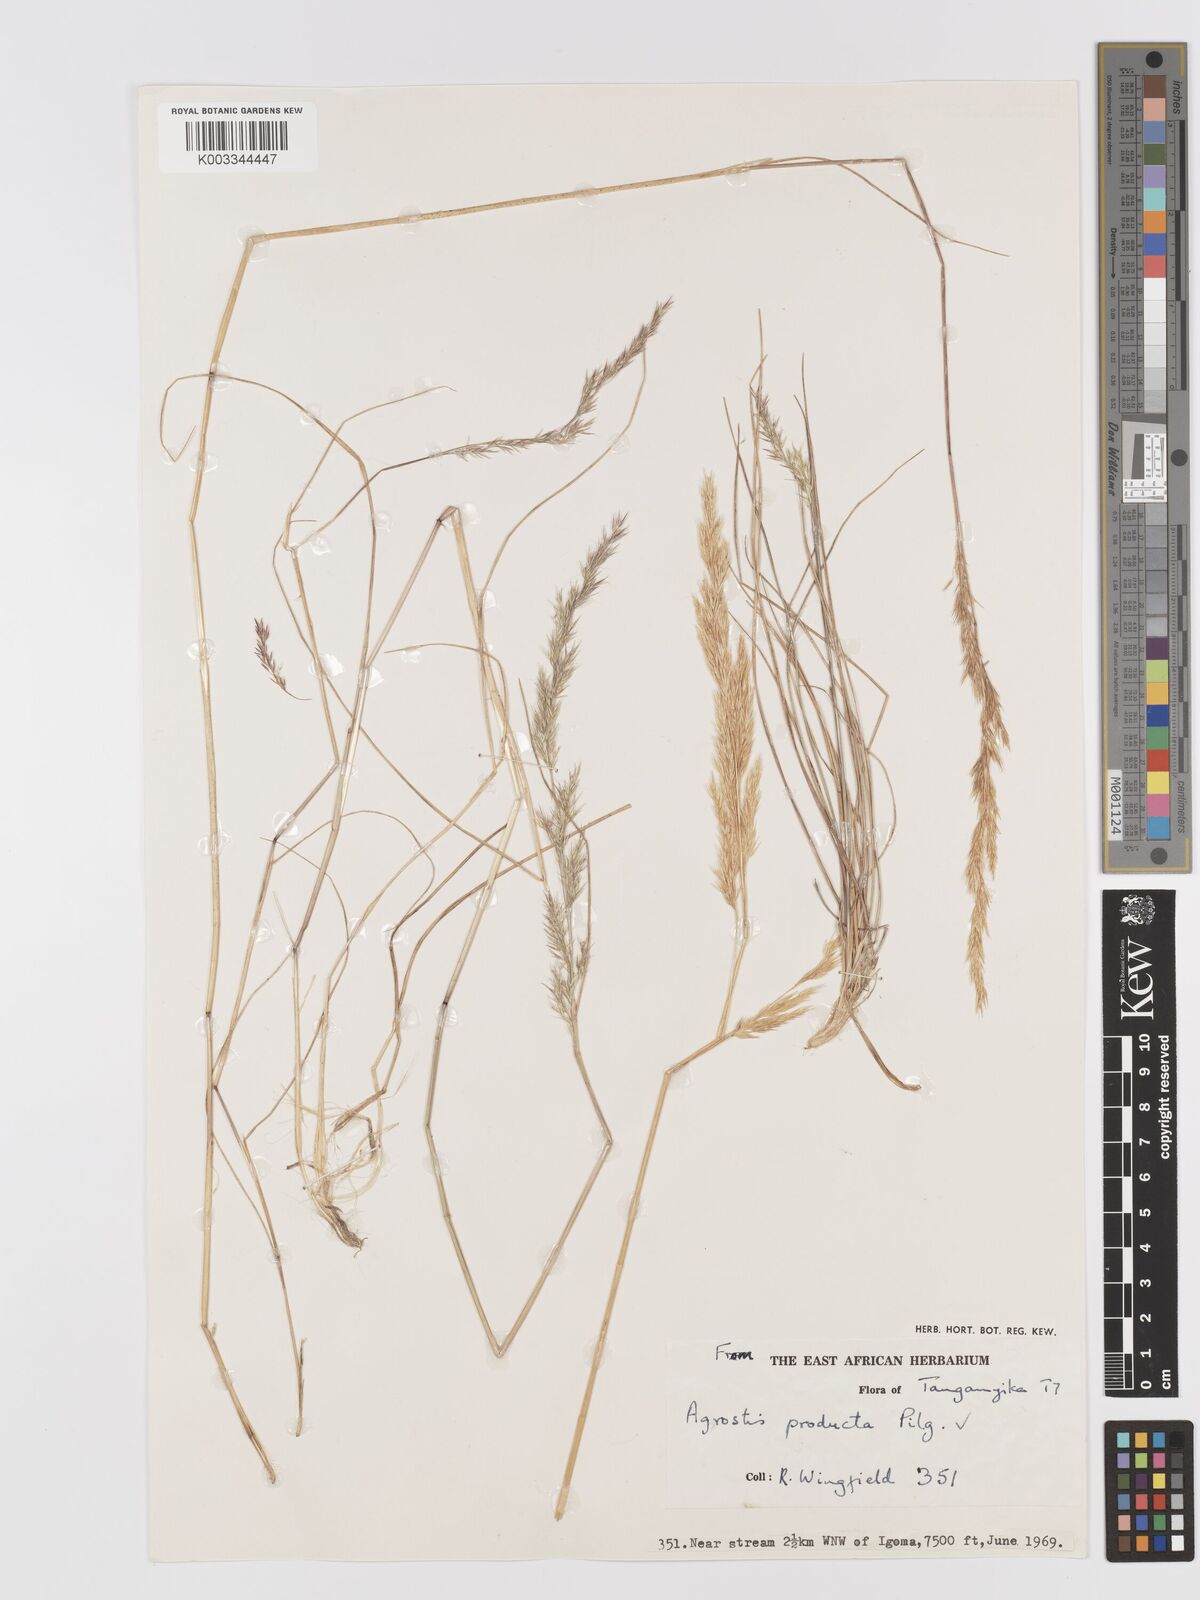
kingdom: Plantae
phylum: Tracheophyta
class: Liliopsida
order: Poales
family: Poaceae
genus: Agrostis
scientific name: Agrostis producta
